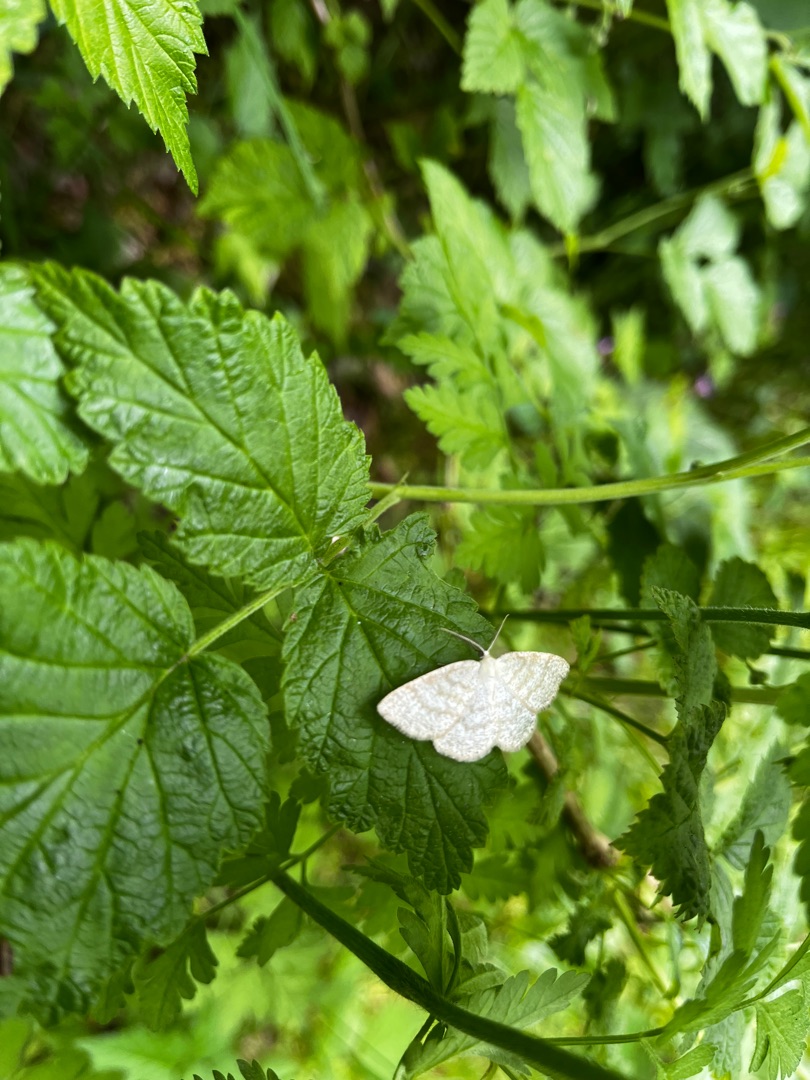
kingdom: Animalia
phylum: Arthropoda
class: Insecta
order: Lepidoptera
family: Geometridae
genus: Cabera
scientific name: Cabera exanthemata
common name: Gulhvid stregmåler
